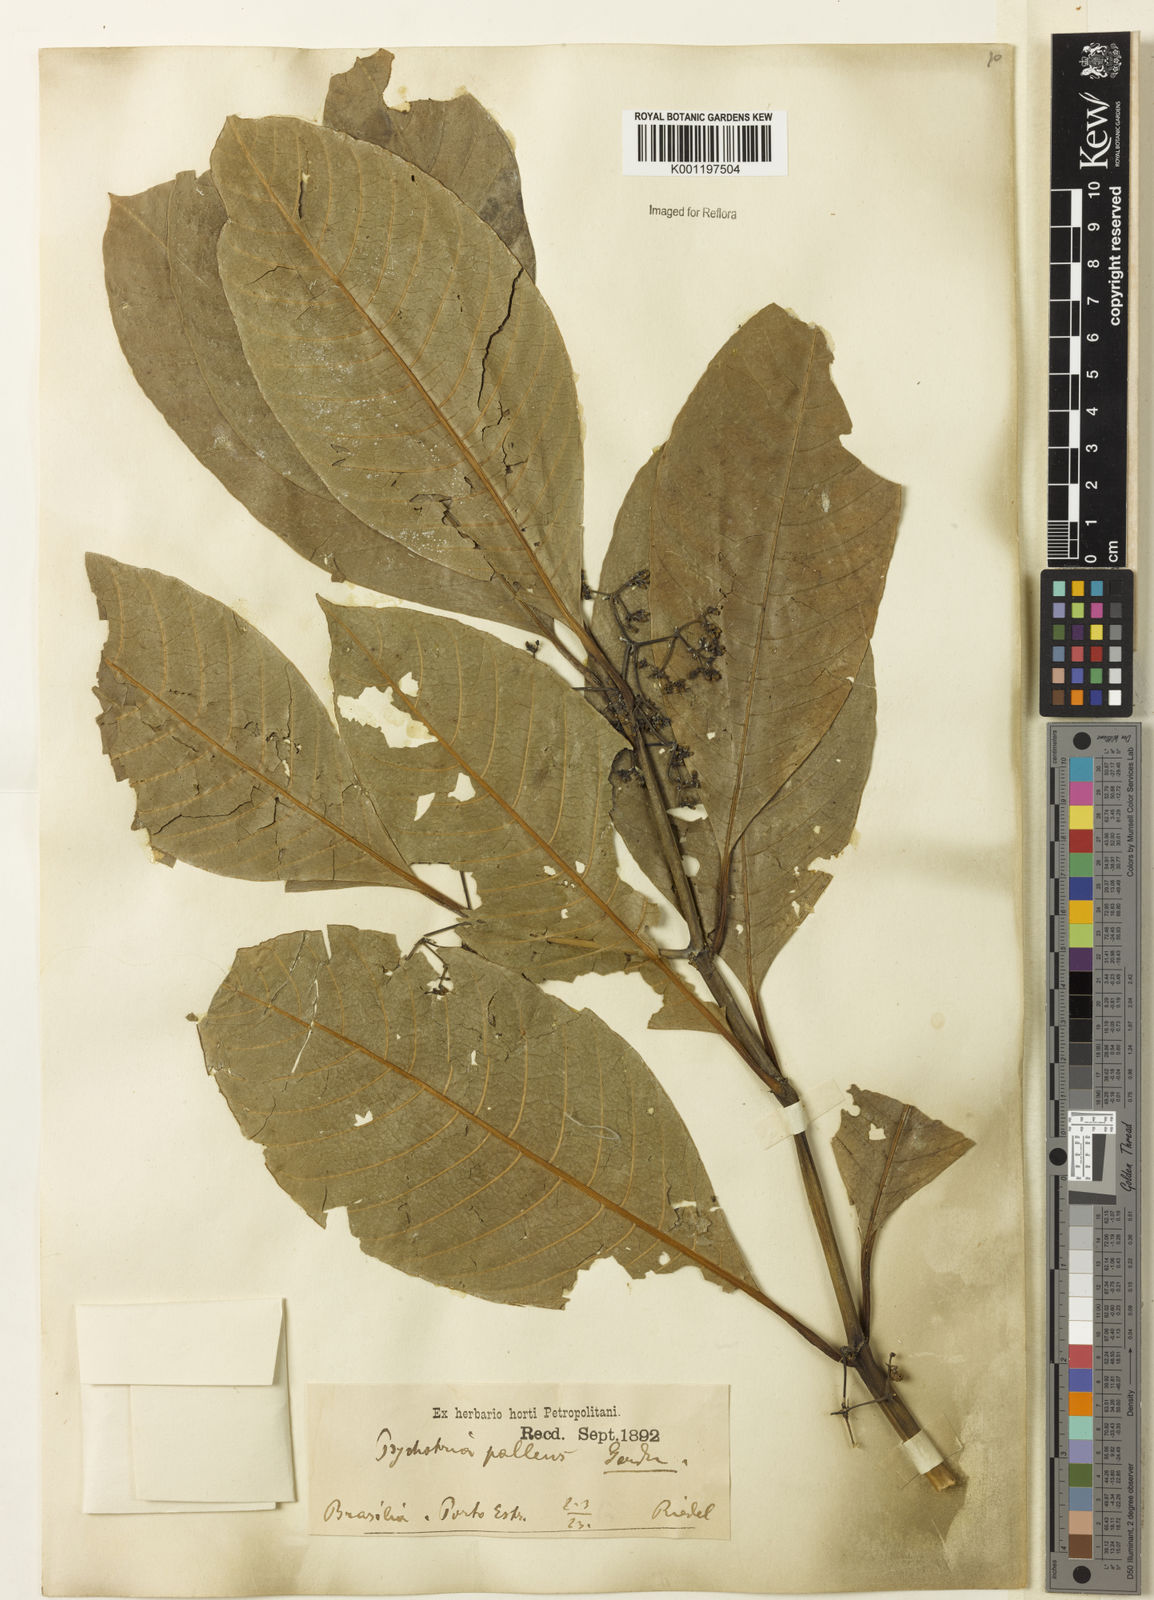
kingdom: Plantae
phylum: Tracheophyta
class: Magnoliopsida
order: Gentianales
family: Rubiaceae
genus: Psychotria
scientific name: Psychotria pallens
